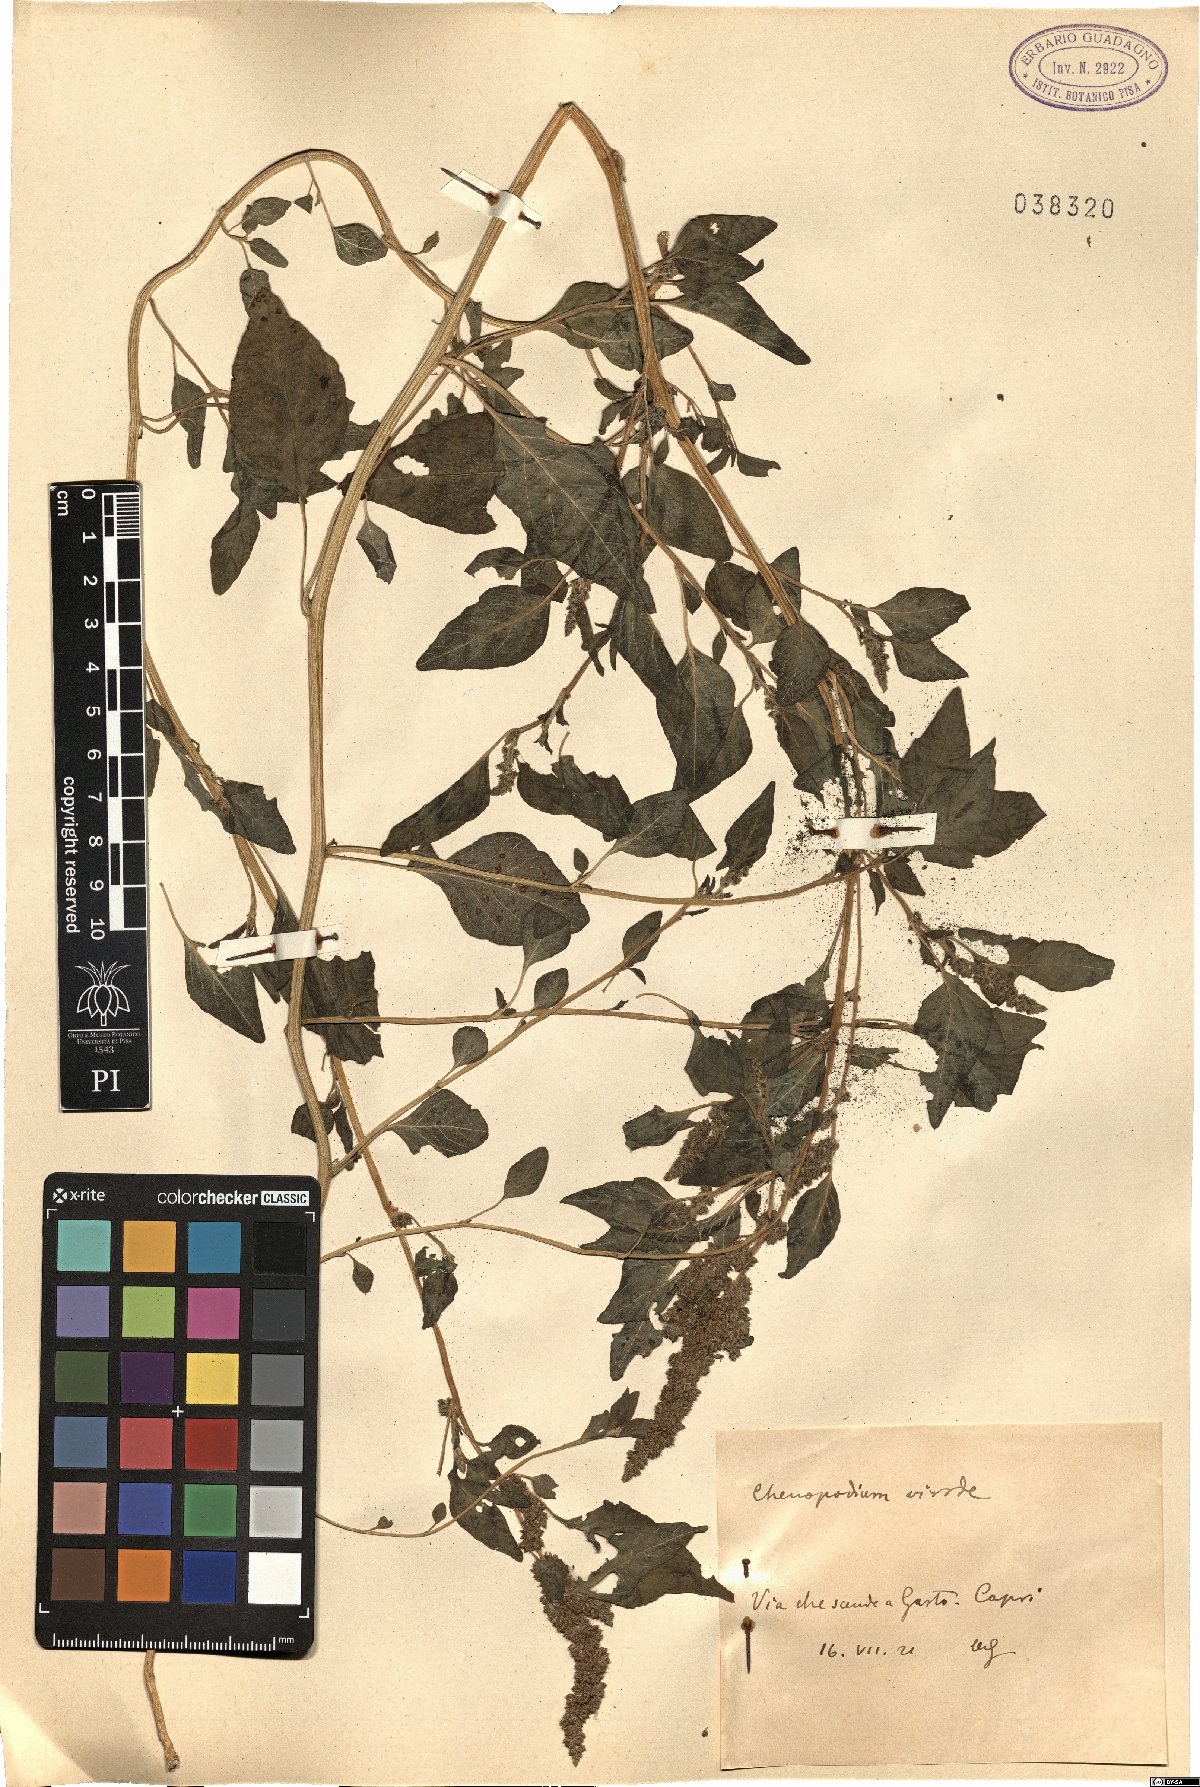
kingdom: Plantae
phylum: Tracheophyta
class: Magnoliopsida
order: Caryophyllales
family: Amaranthaceae
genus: Chenopodium
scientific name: Chenopodium album
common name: Fat-hen
